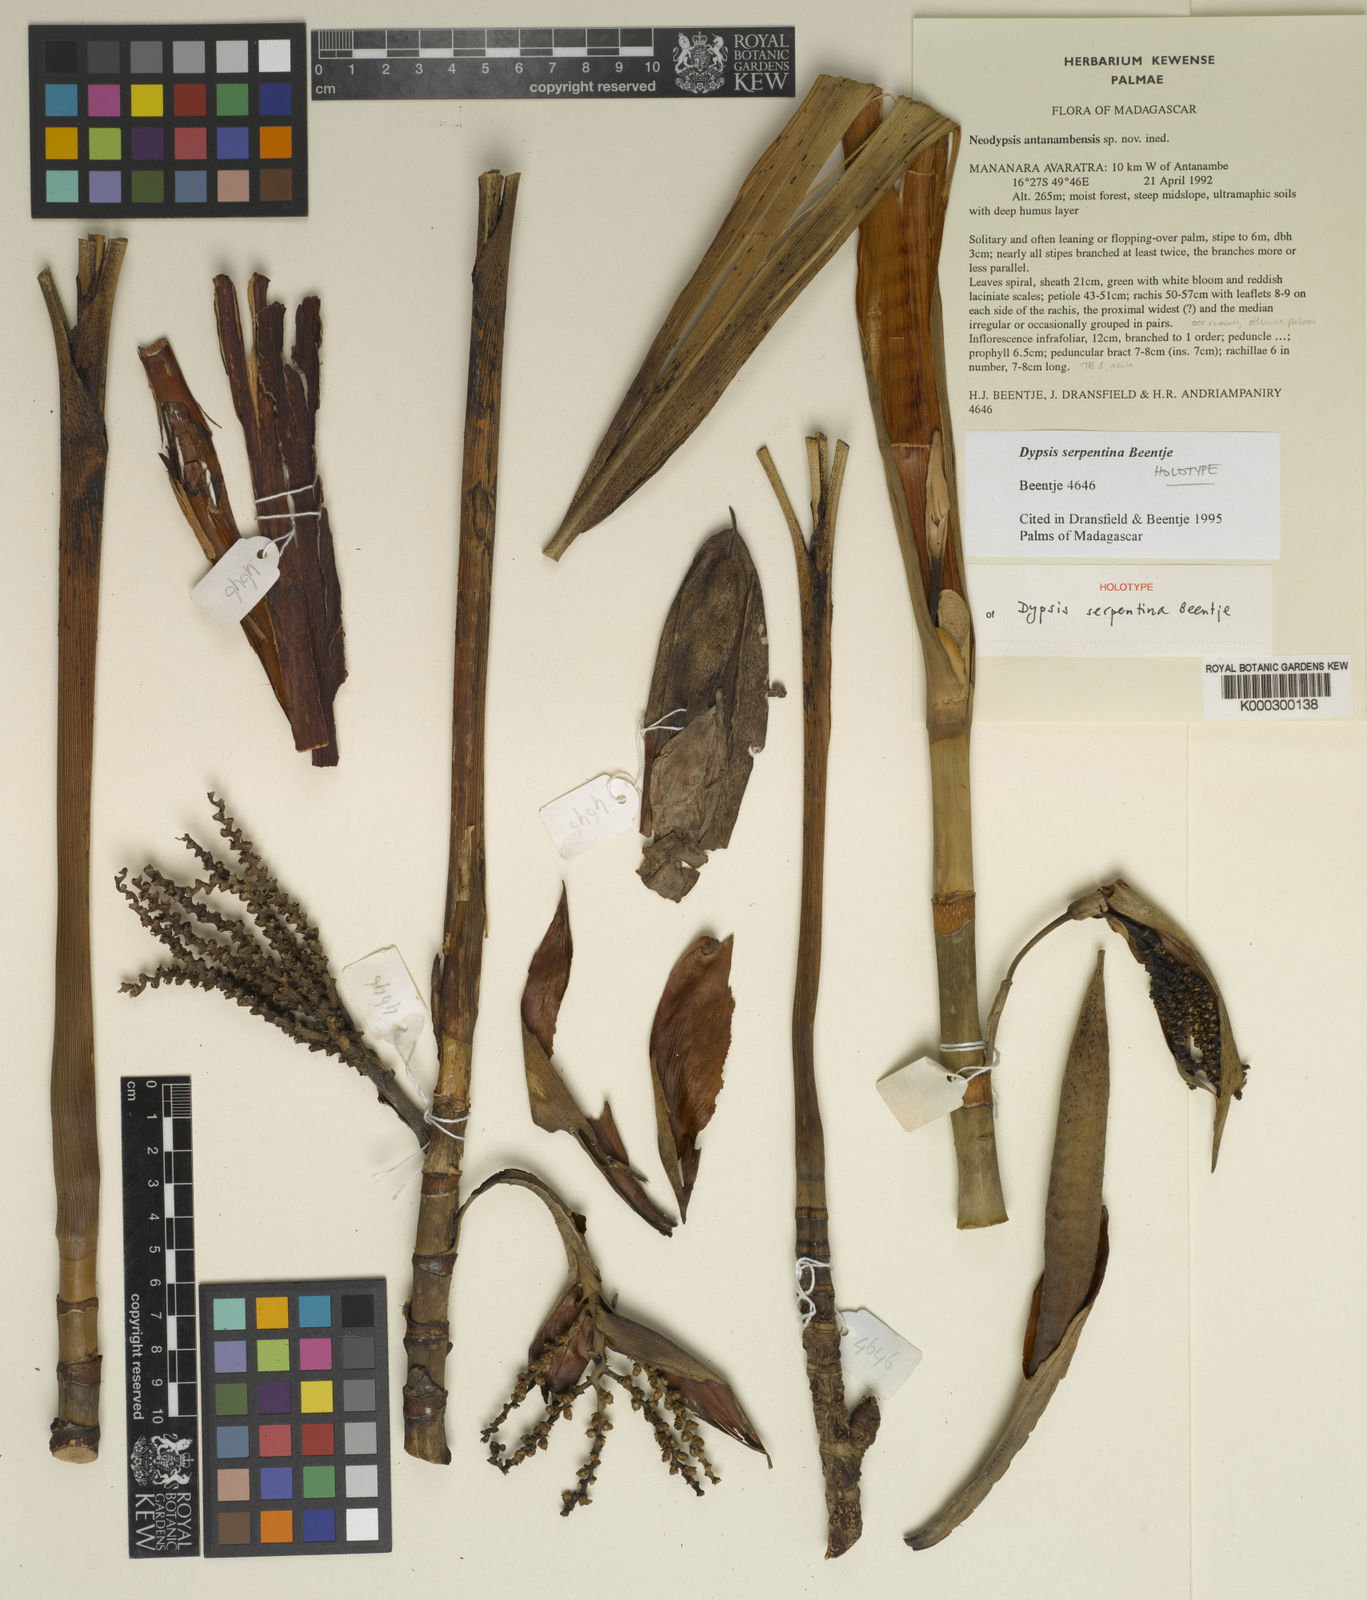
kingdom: Plantae
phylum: Tracheophyta
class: Liliopsida
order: Arecales
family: Arecaceae
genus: Dypsis
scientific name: Dypsis serpentina
